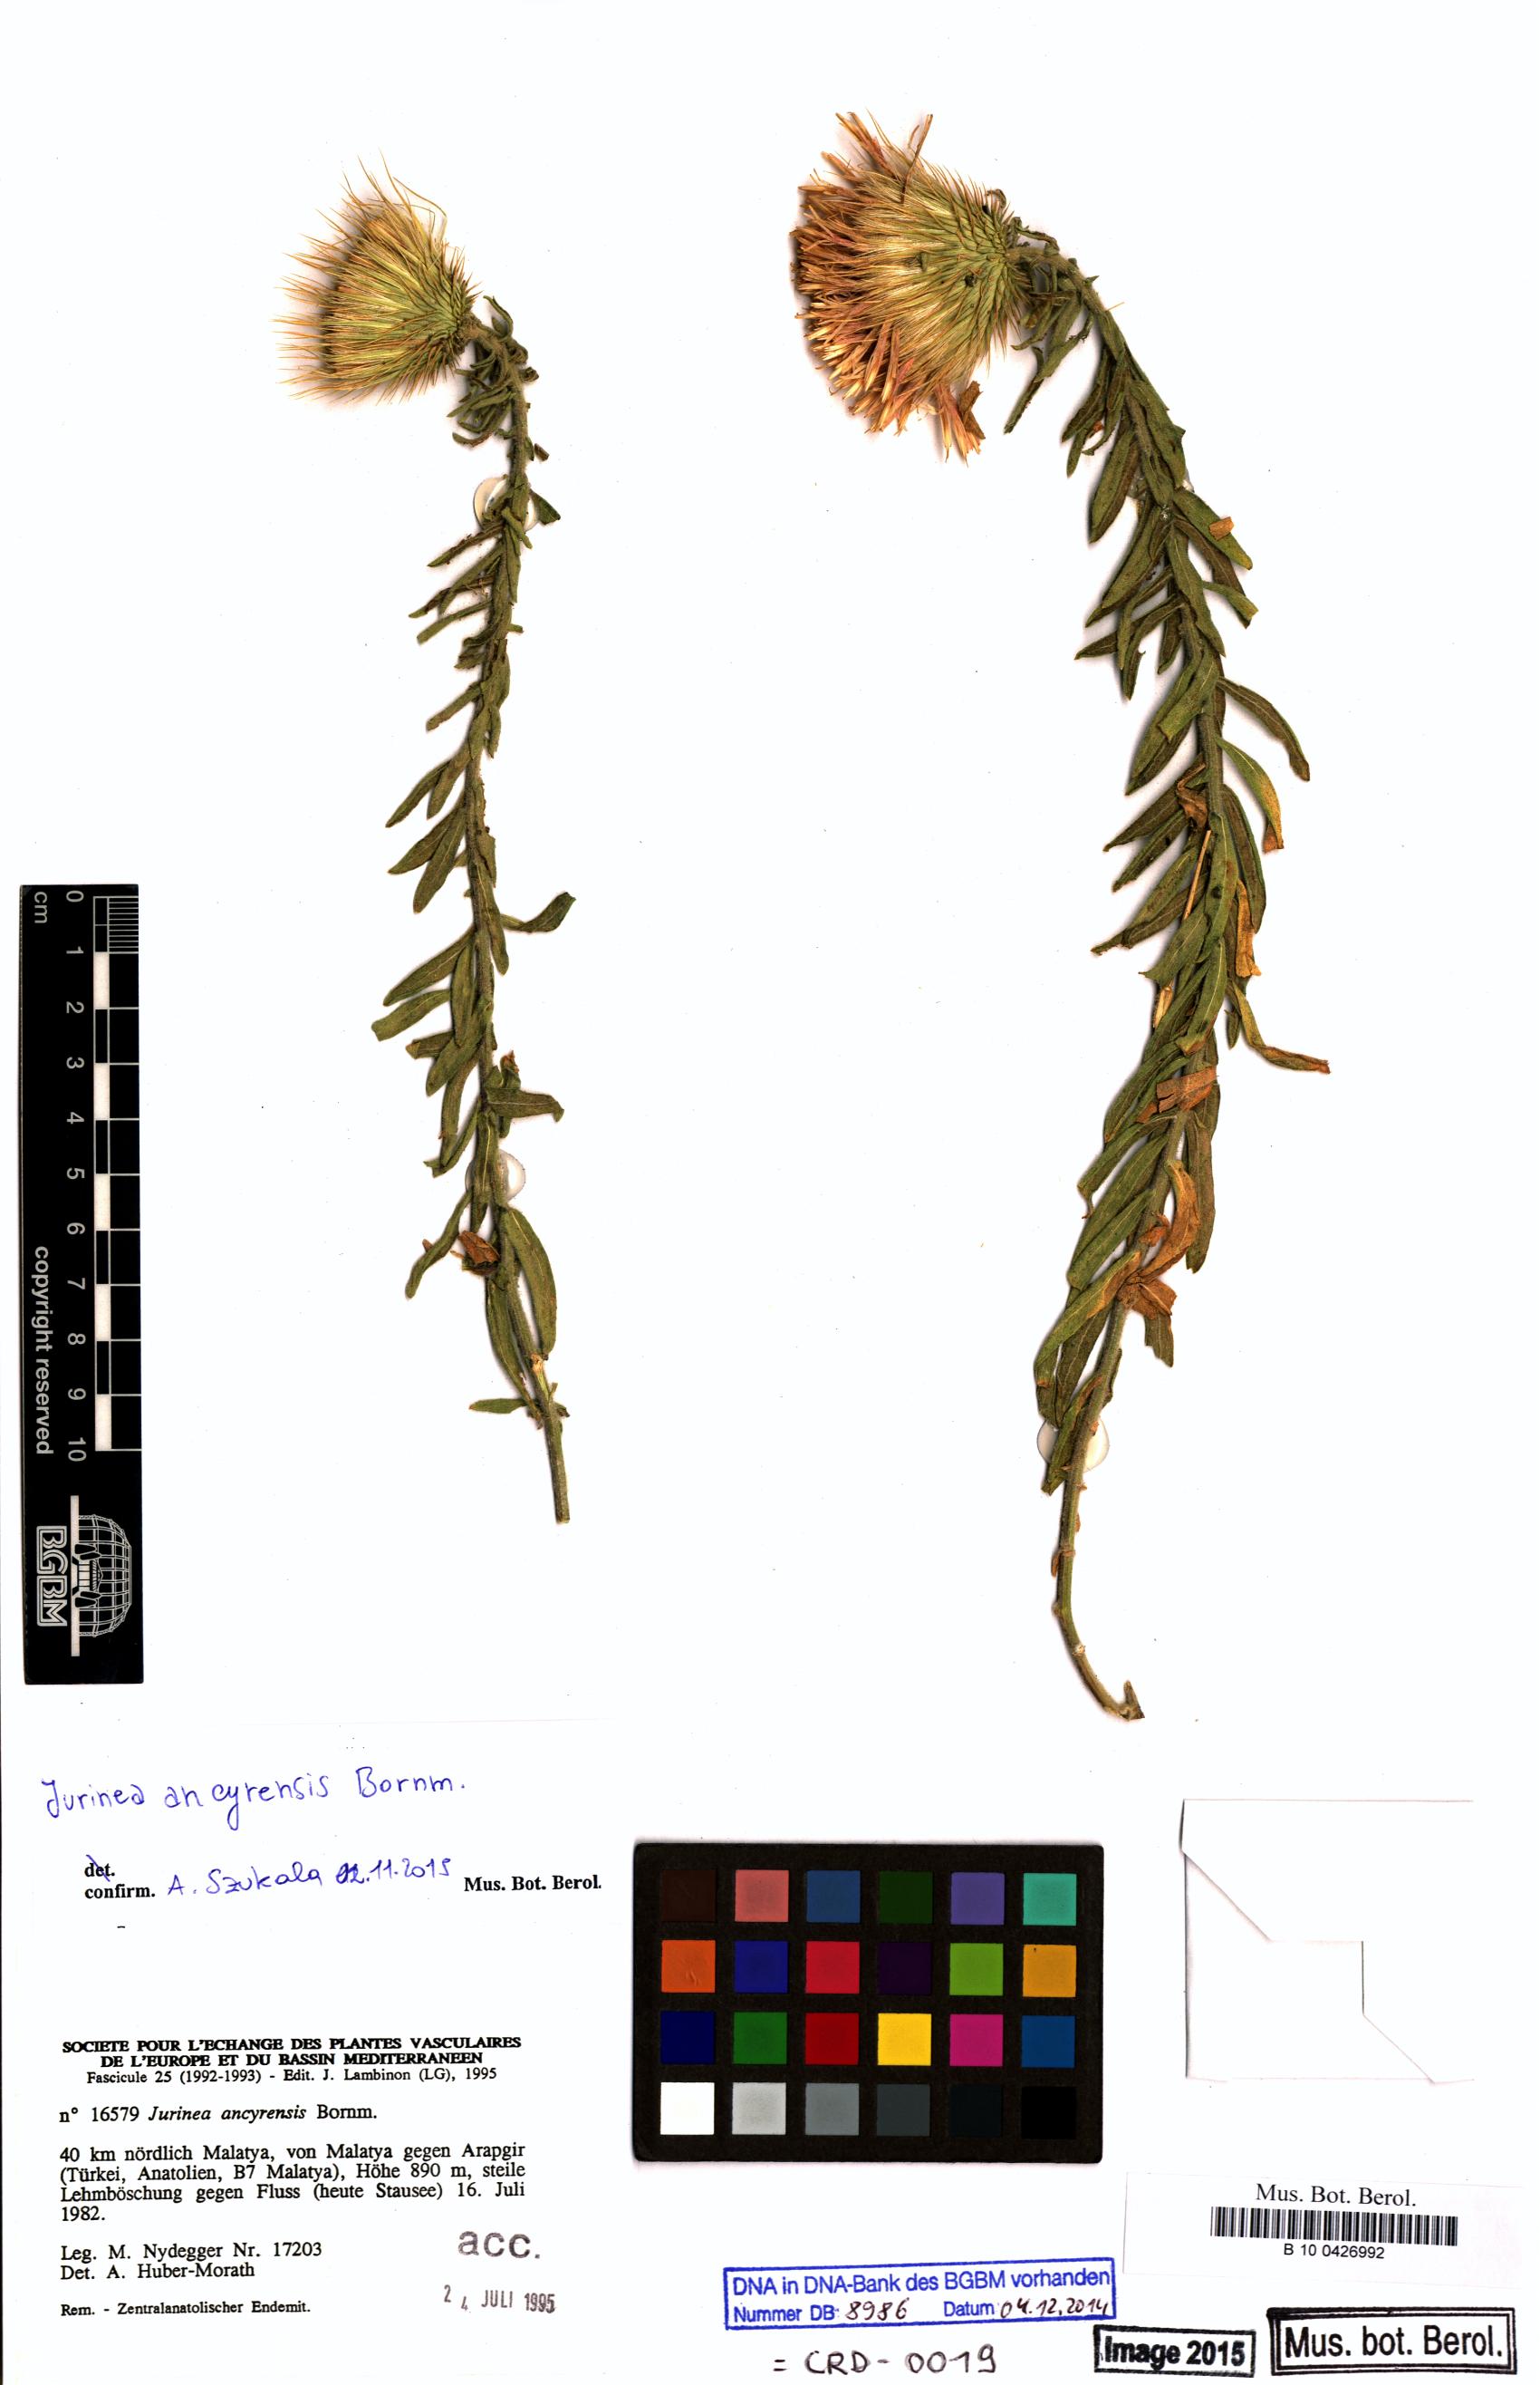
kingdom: Plantae
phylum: Tracheophyta
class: Magnoliopsida
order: Asterales
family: Asteraceae
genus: Jurinea
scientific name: Jurinea ancyrensis
